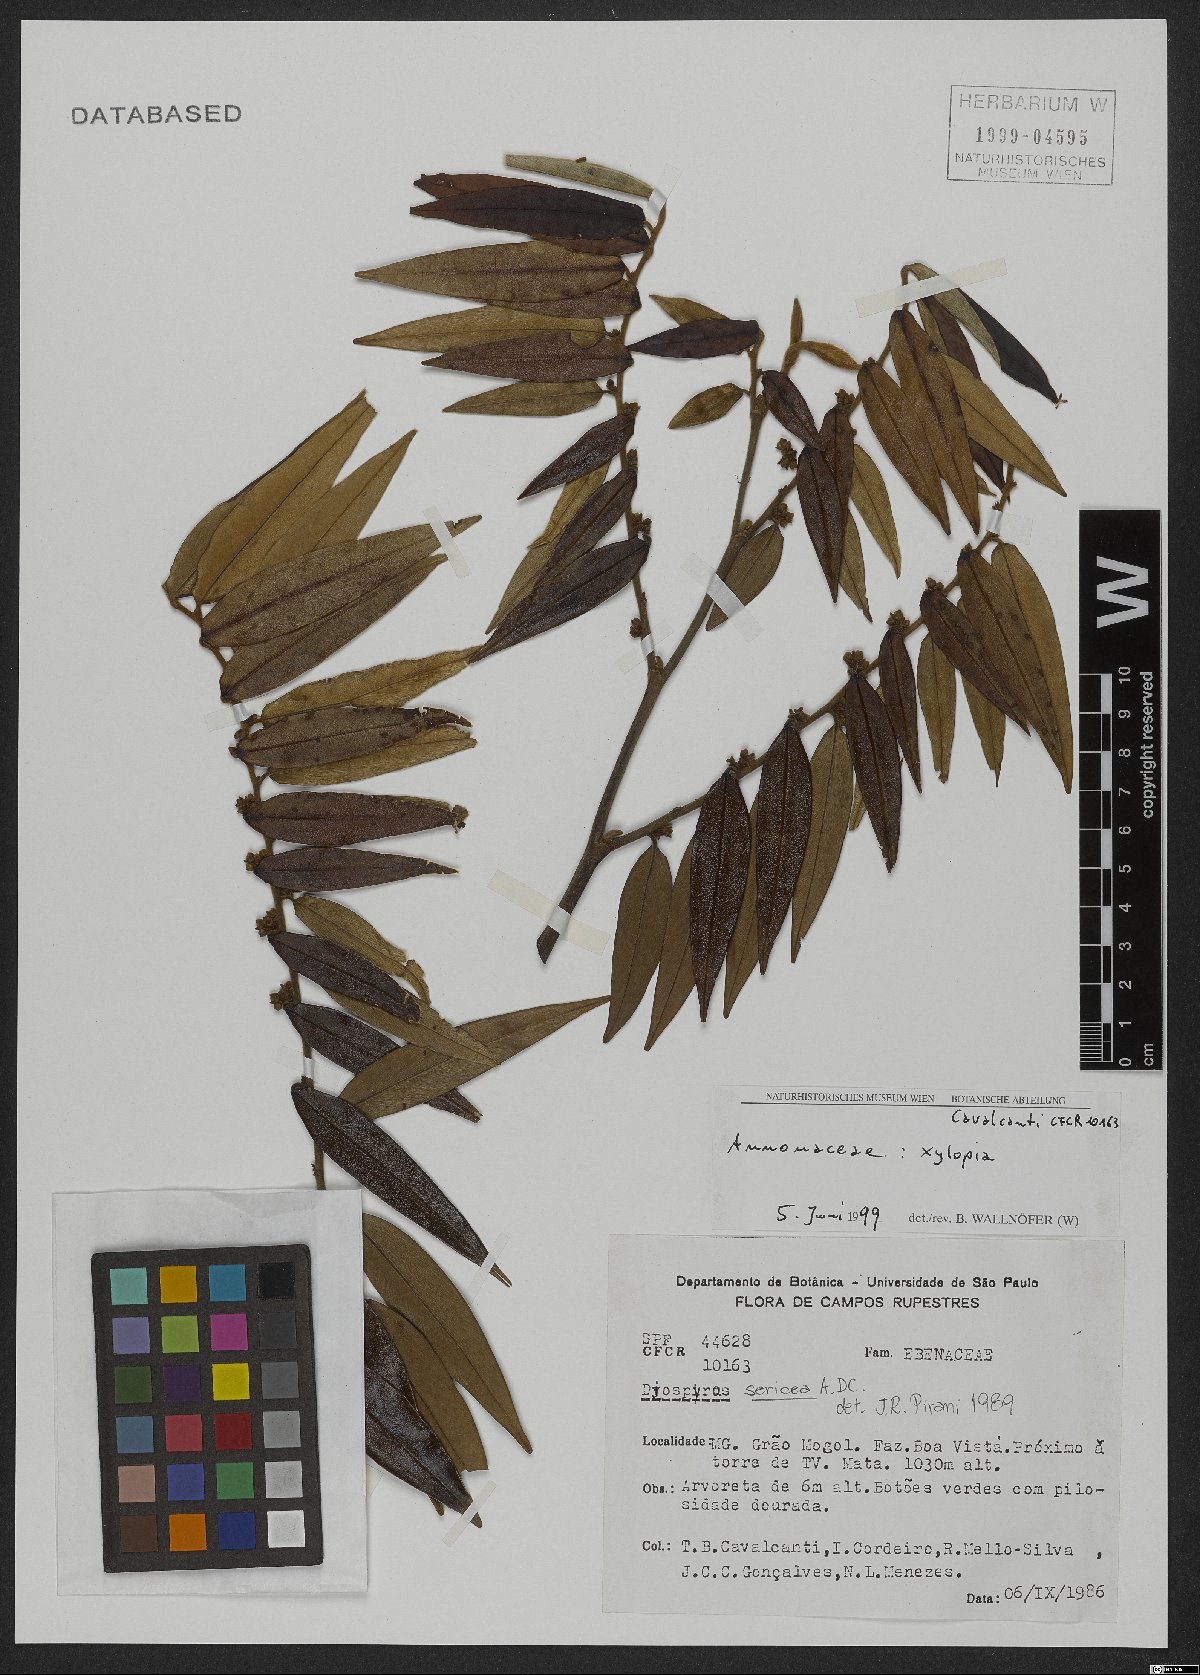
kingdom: Plantae
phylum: Tracheophyta
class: Magnoliopsida
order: Magnoliales
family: Annonaceae
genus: Xylopia
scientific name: Xylopia
